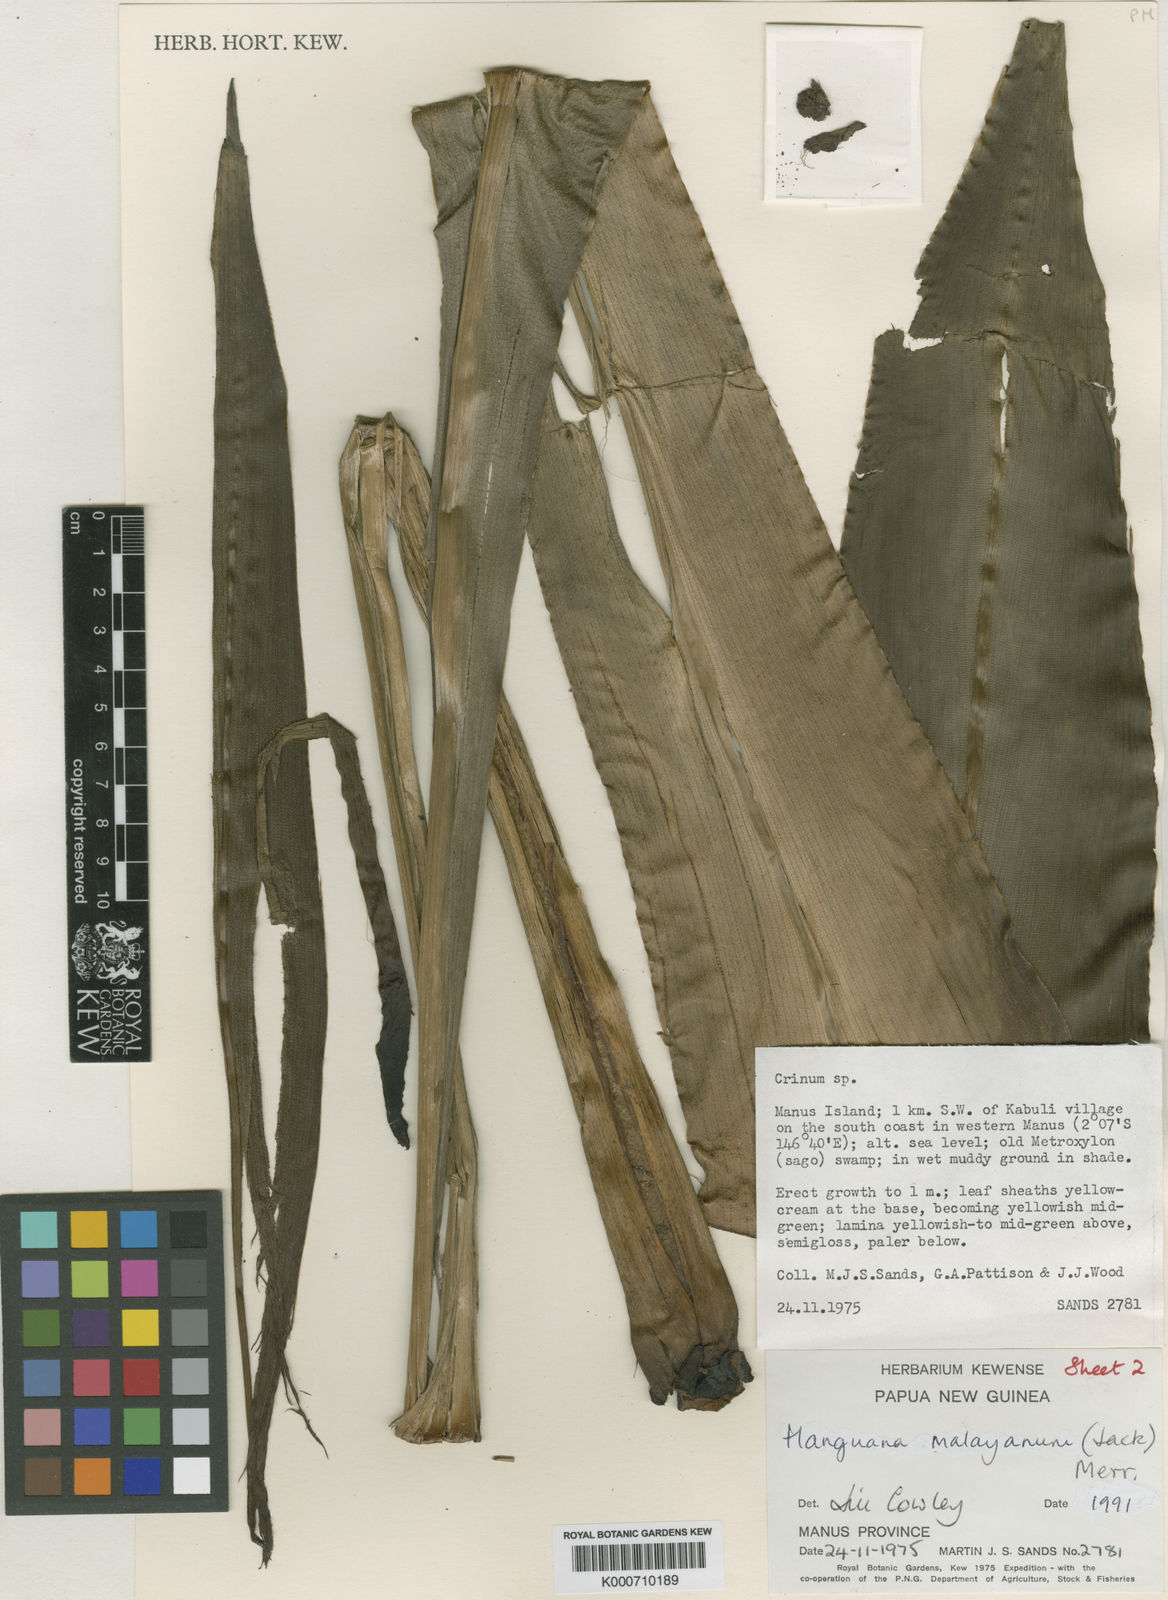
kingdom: Plantae
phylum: Tracheophyta
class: Liliopsida
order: Commelinales
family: Hanguanaceae
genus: Hanguana
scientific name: Hanguana malayana
